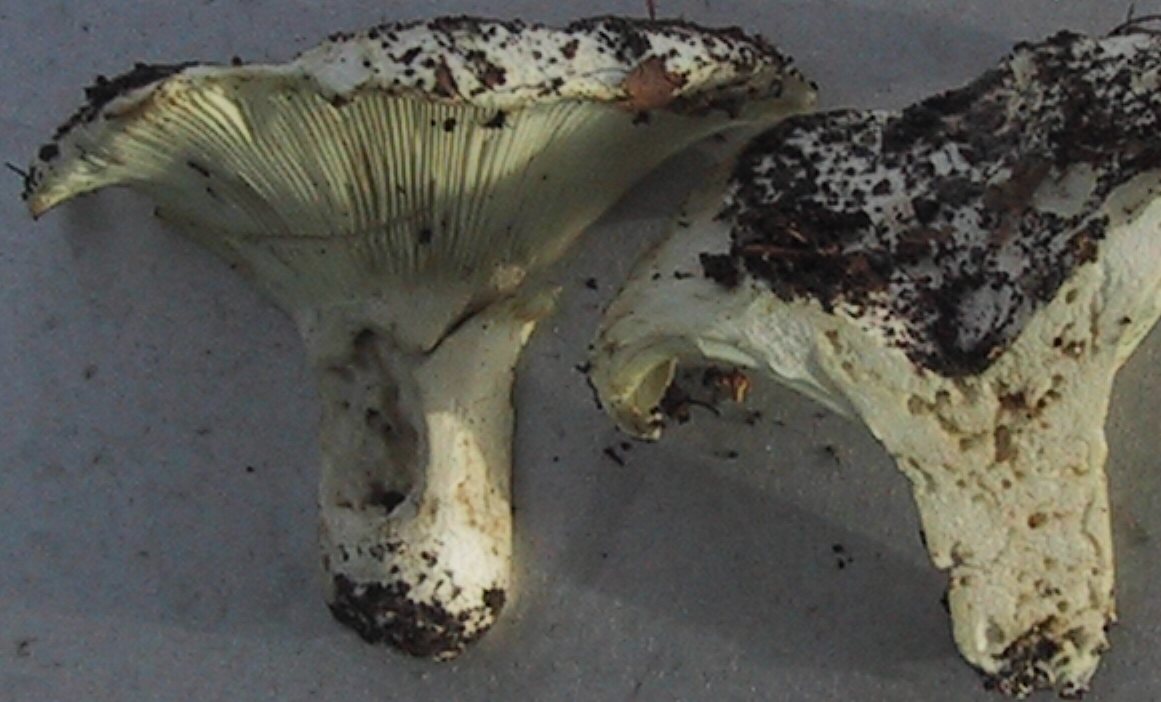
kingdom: Fungi
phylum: Basidiomycota
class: Agaricomycetes
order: Russulales
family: Russulaceae
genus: Russula
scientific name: Russula chloroides
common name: grønhalset tragt-skørhat
